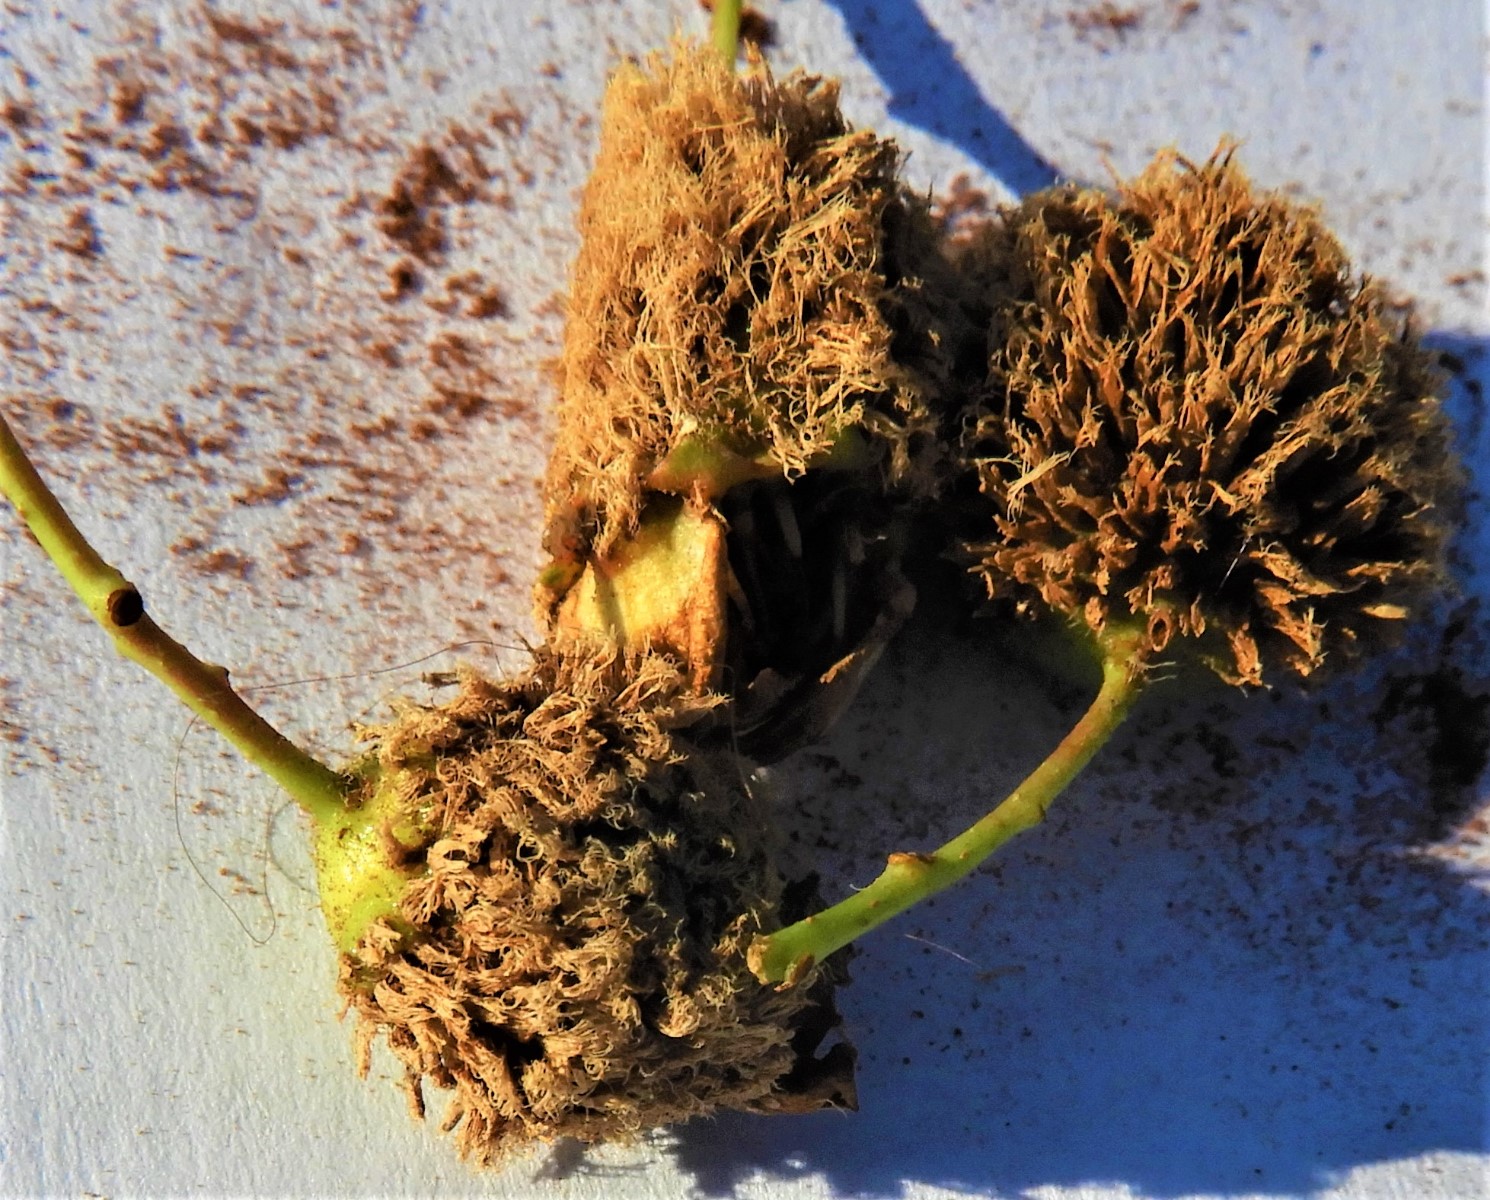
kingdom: Fungi
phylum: Basidiomycota
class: Pucciniomycetes
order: Pucciniales
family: Gymnosporangiaceae
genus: Gymnosporangium
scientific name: Gymnosporangium
